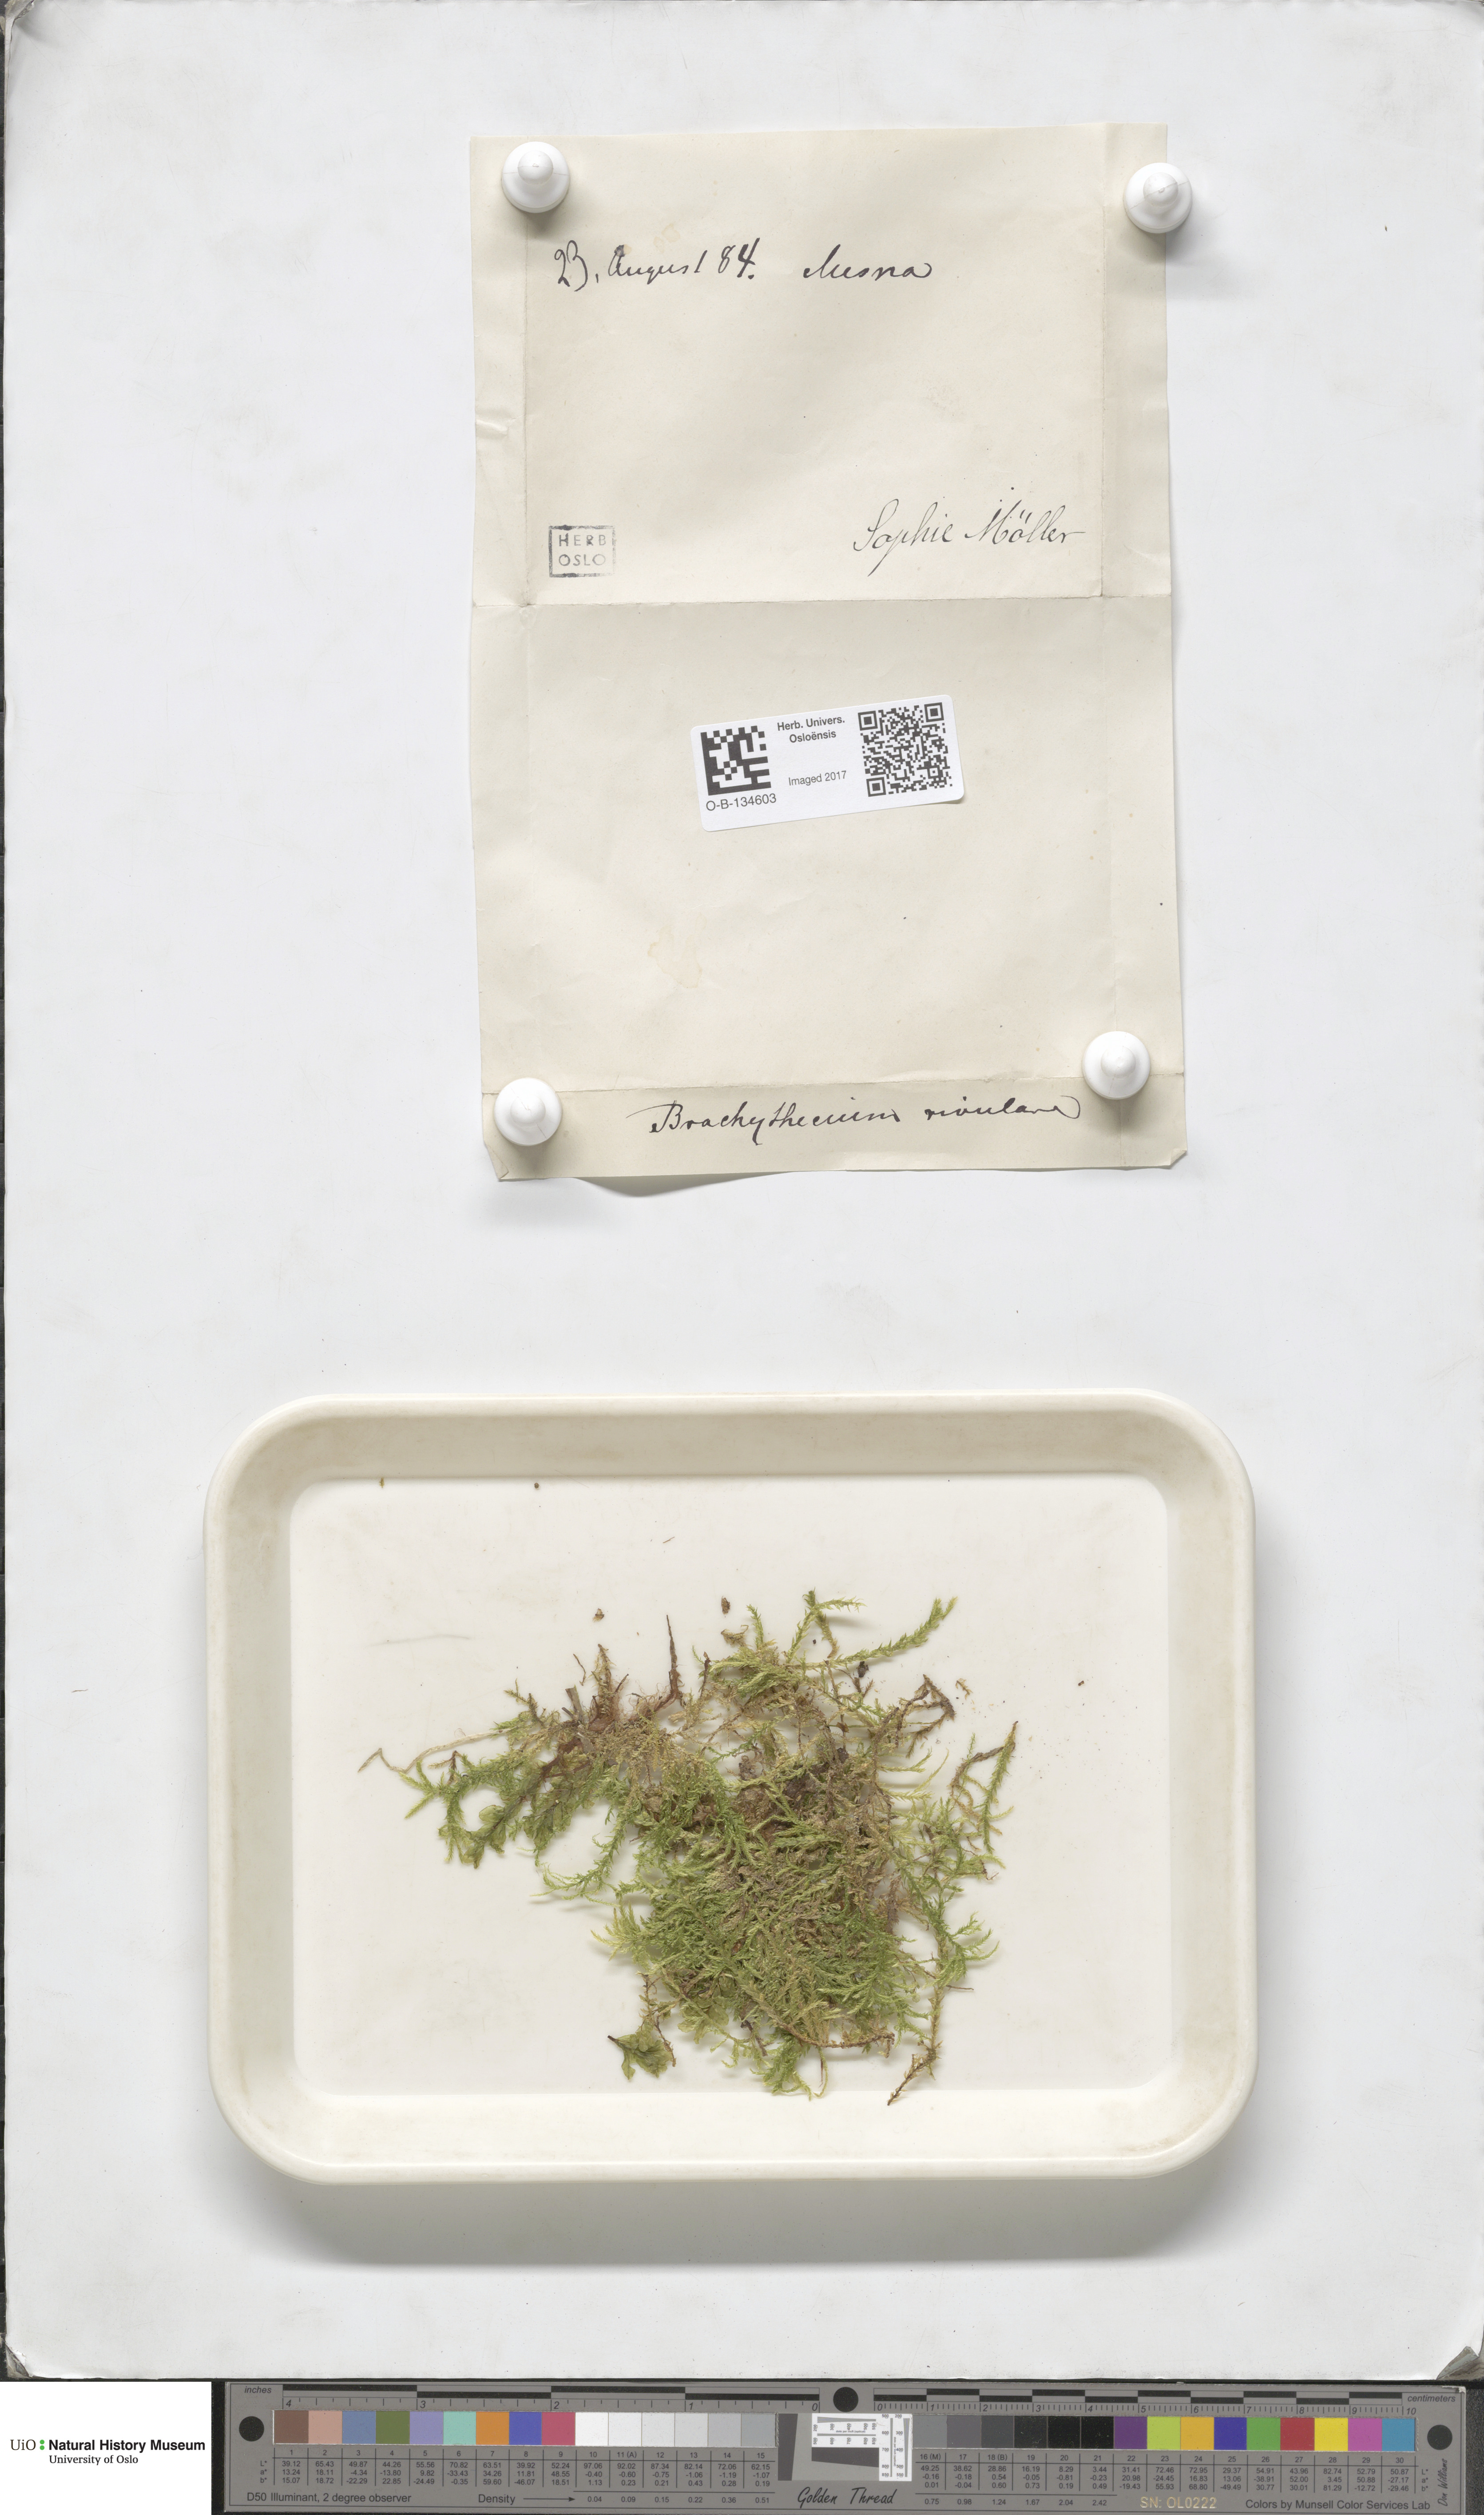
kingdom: Plantae
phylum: Bryophyta
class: Bryopsida
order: Hypnales
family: Brachytheciaceae
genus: Brachythecium
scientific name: Brachythecium rivulare
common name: River ragged moss
